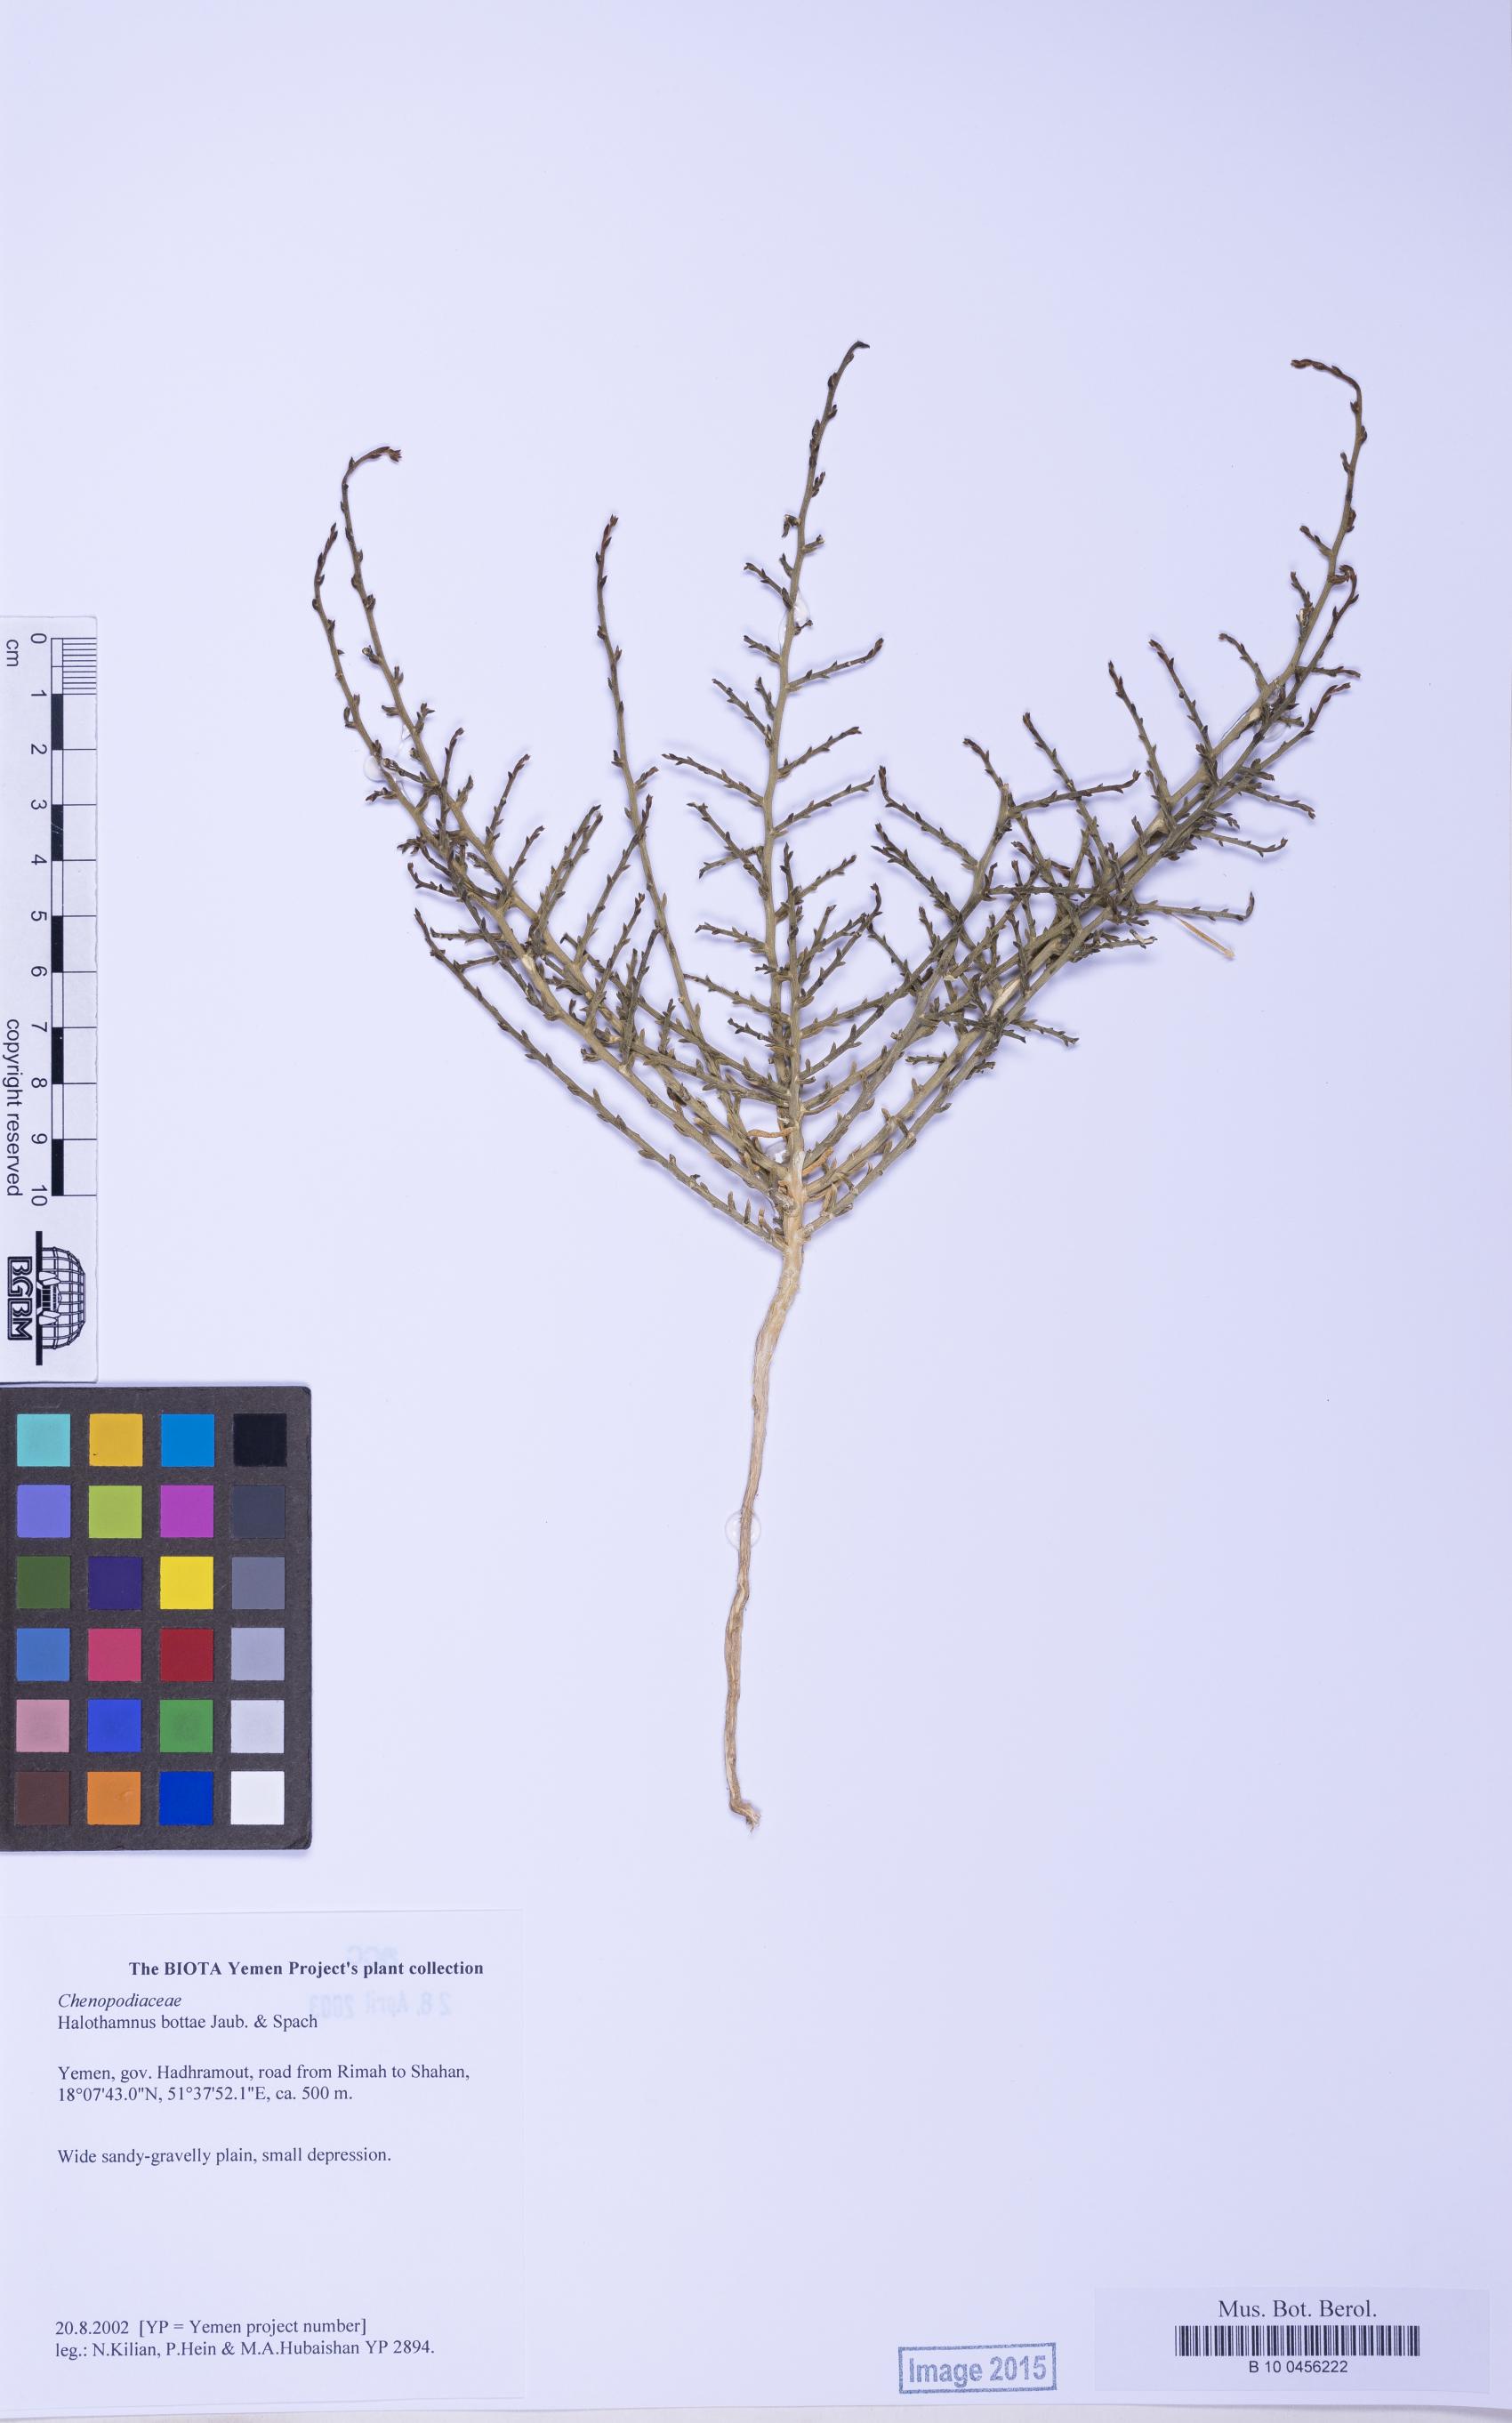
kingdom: Plantae
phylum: Tracheophyta
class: Magnoliopsida
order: Caryophyllales
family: Amaranthaceae
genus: Halothamnus
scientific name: Halothamnus bottae
